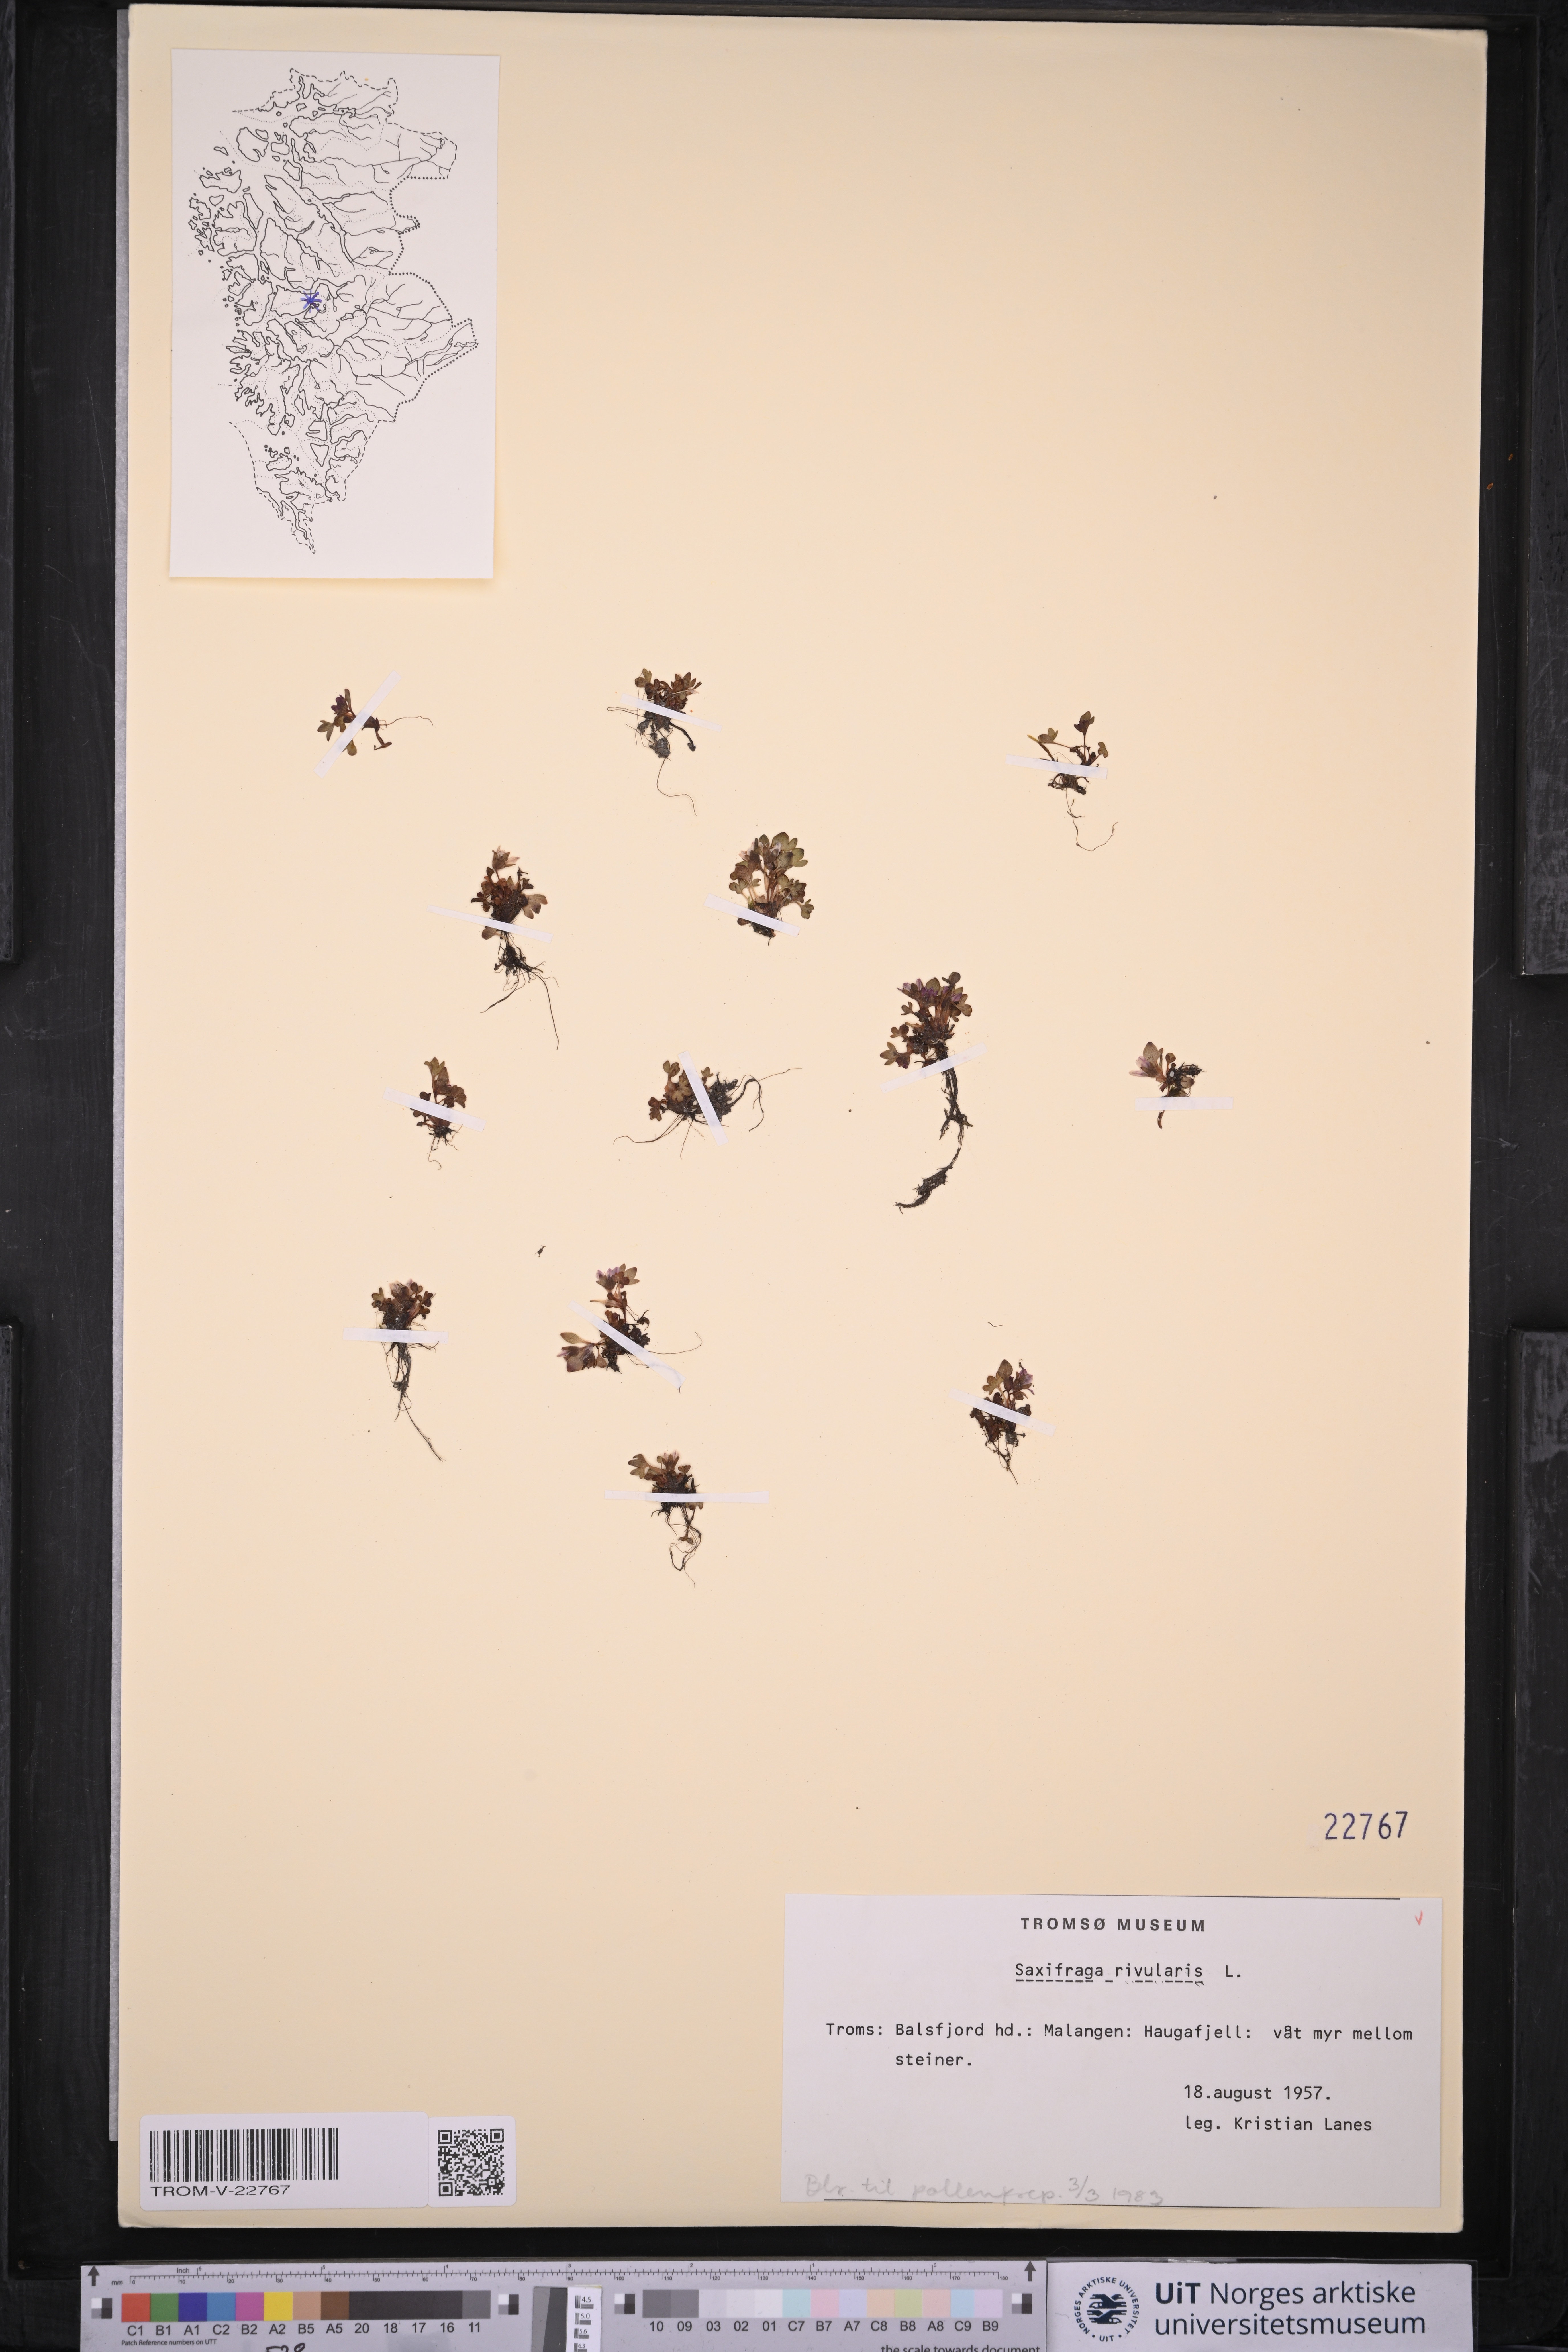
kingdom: Plantae
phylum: Tracheophyta
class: Magnoliopsida
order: Saxifragales
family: Saxifragaceae
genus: Saxifraga
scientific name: Saxifraga rivularis
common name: Highland saxifrage
